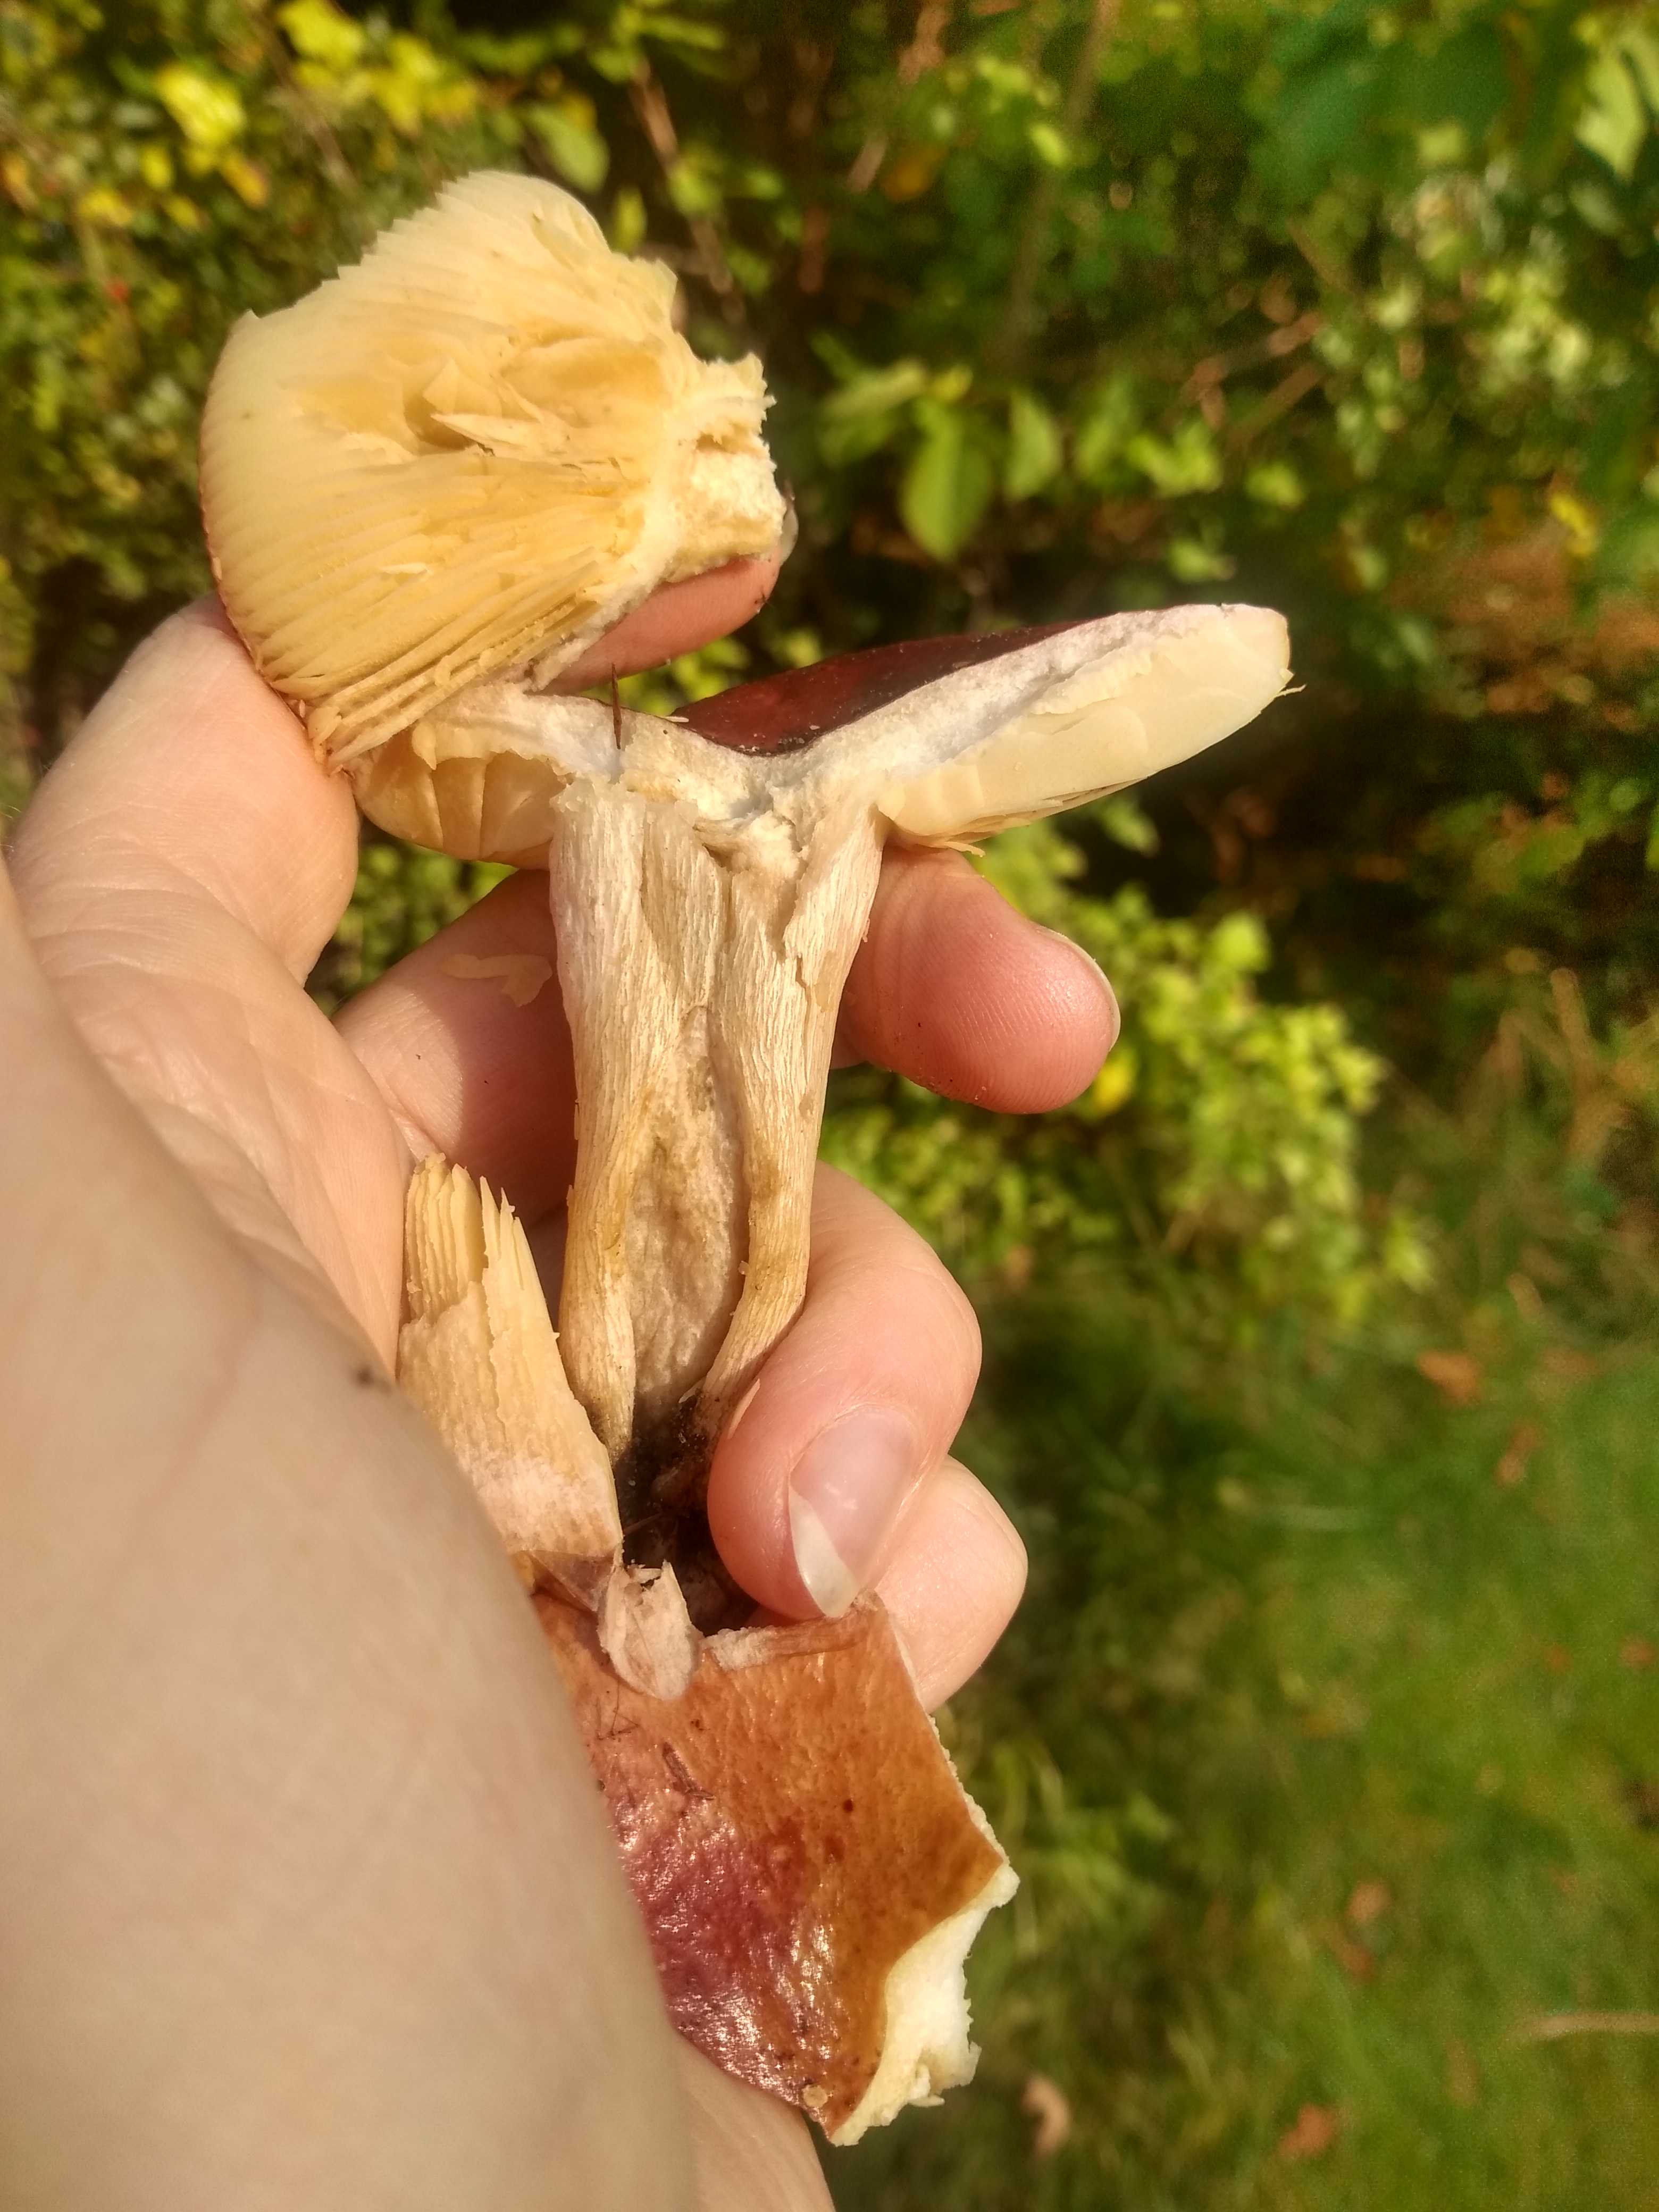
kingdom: Fungi
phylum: Basidiomycota
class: Agaricomycetes
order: Russulales
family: Russulaceae
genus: Russula
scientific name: Russula
